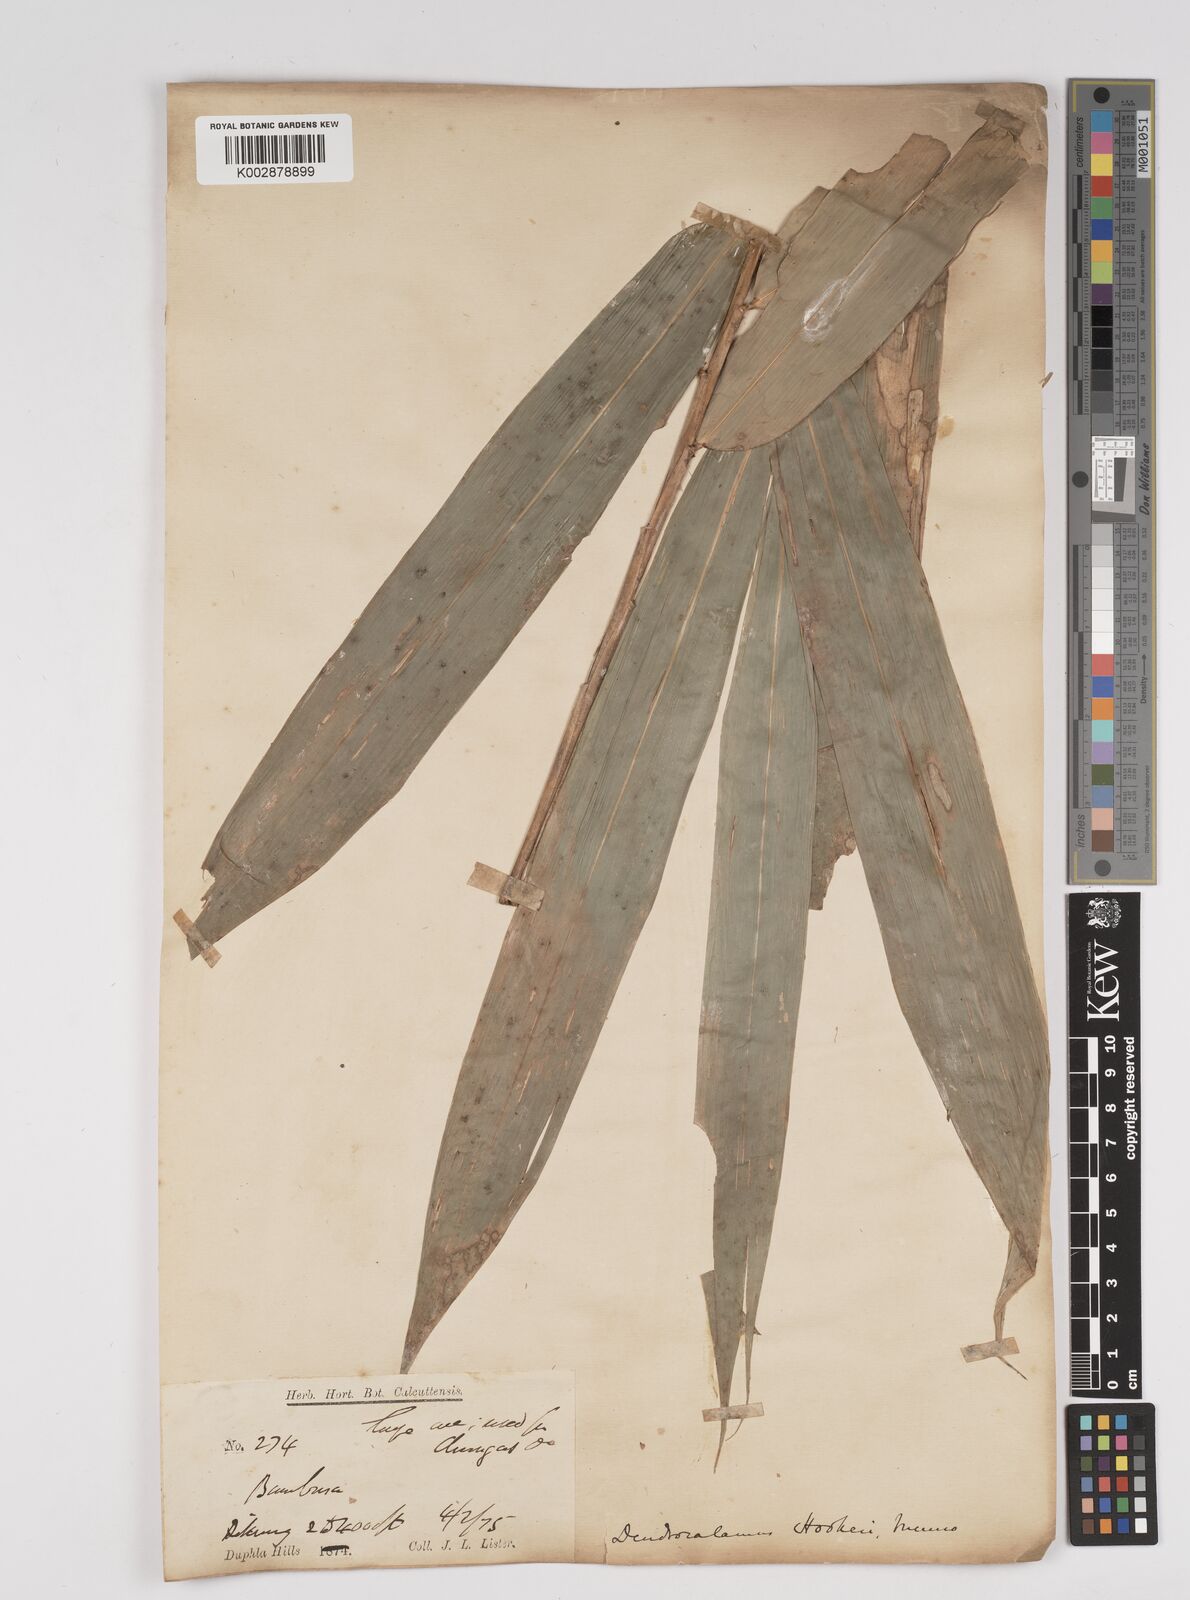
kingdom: Plantae
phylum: Tracheophyta
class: Liliopsida
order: Poales
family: Poaceae
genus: Dendrocalamus
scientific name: Dendrocalamus hookeri
